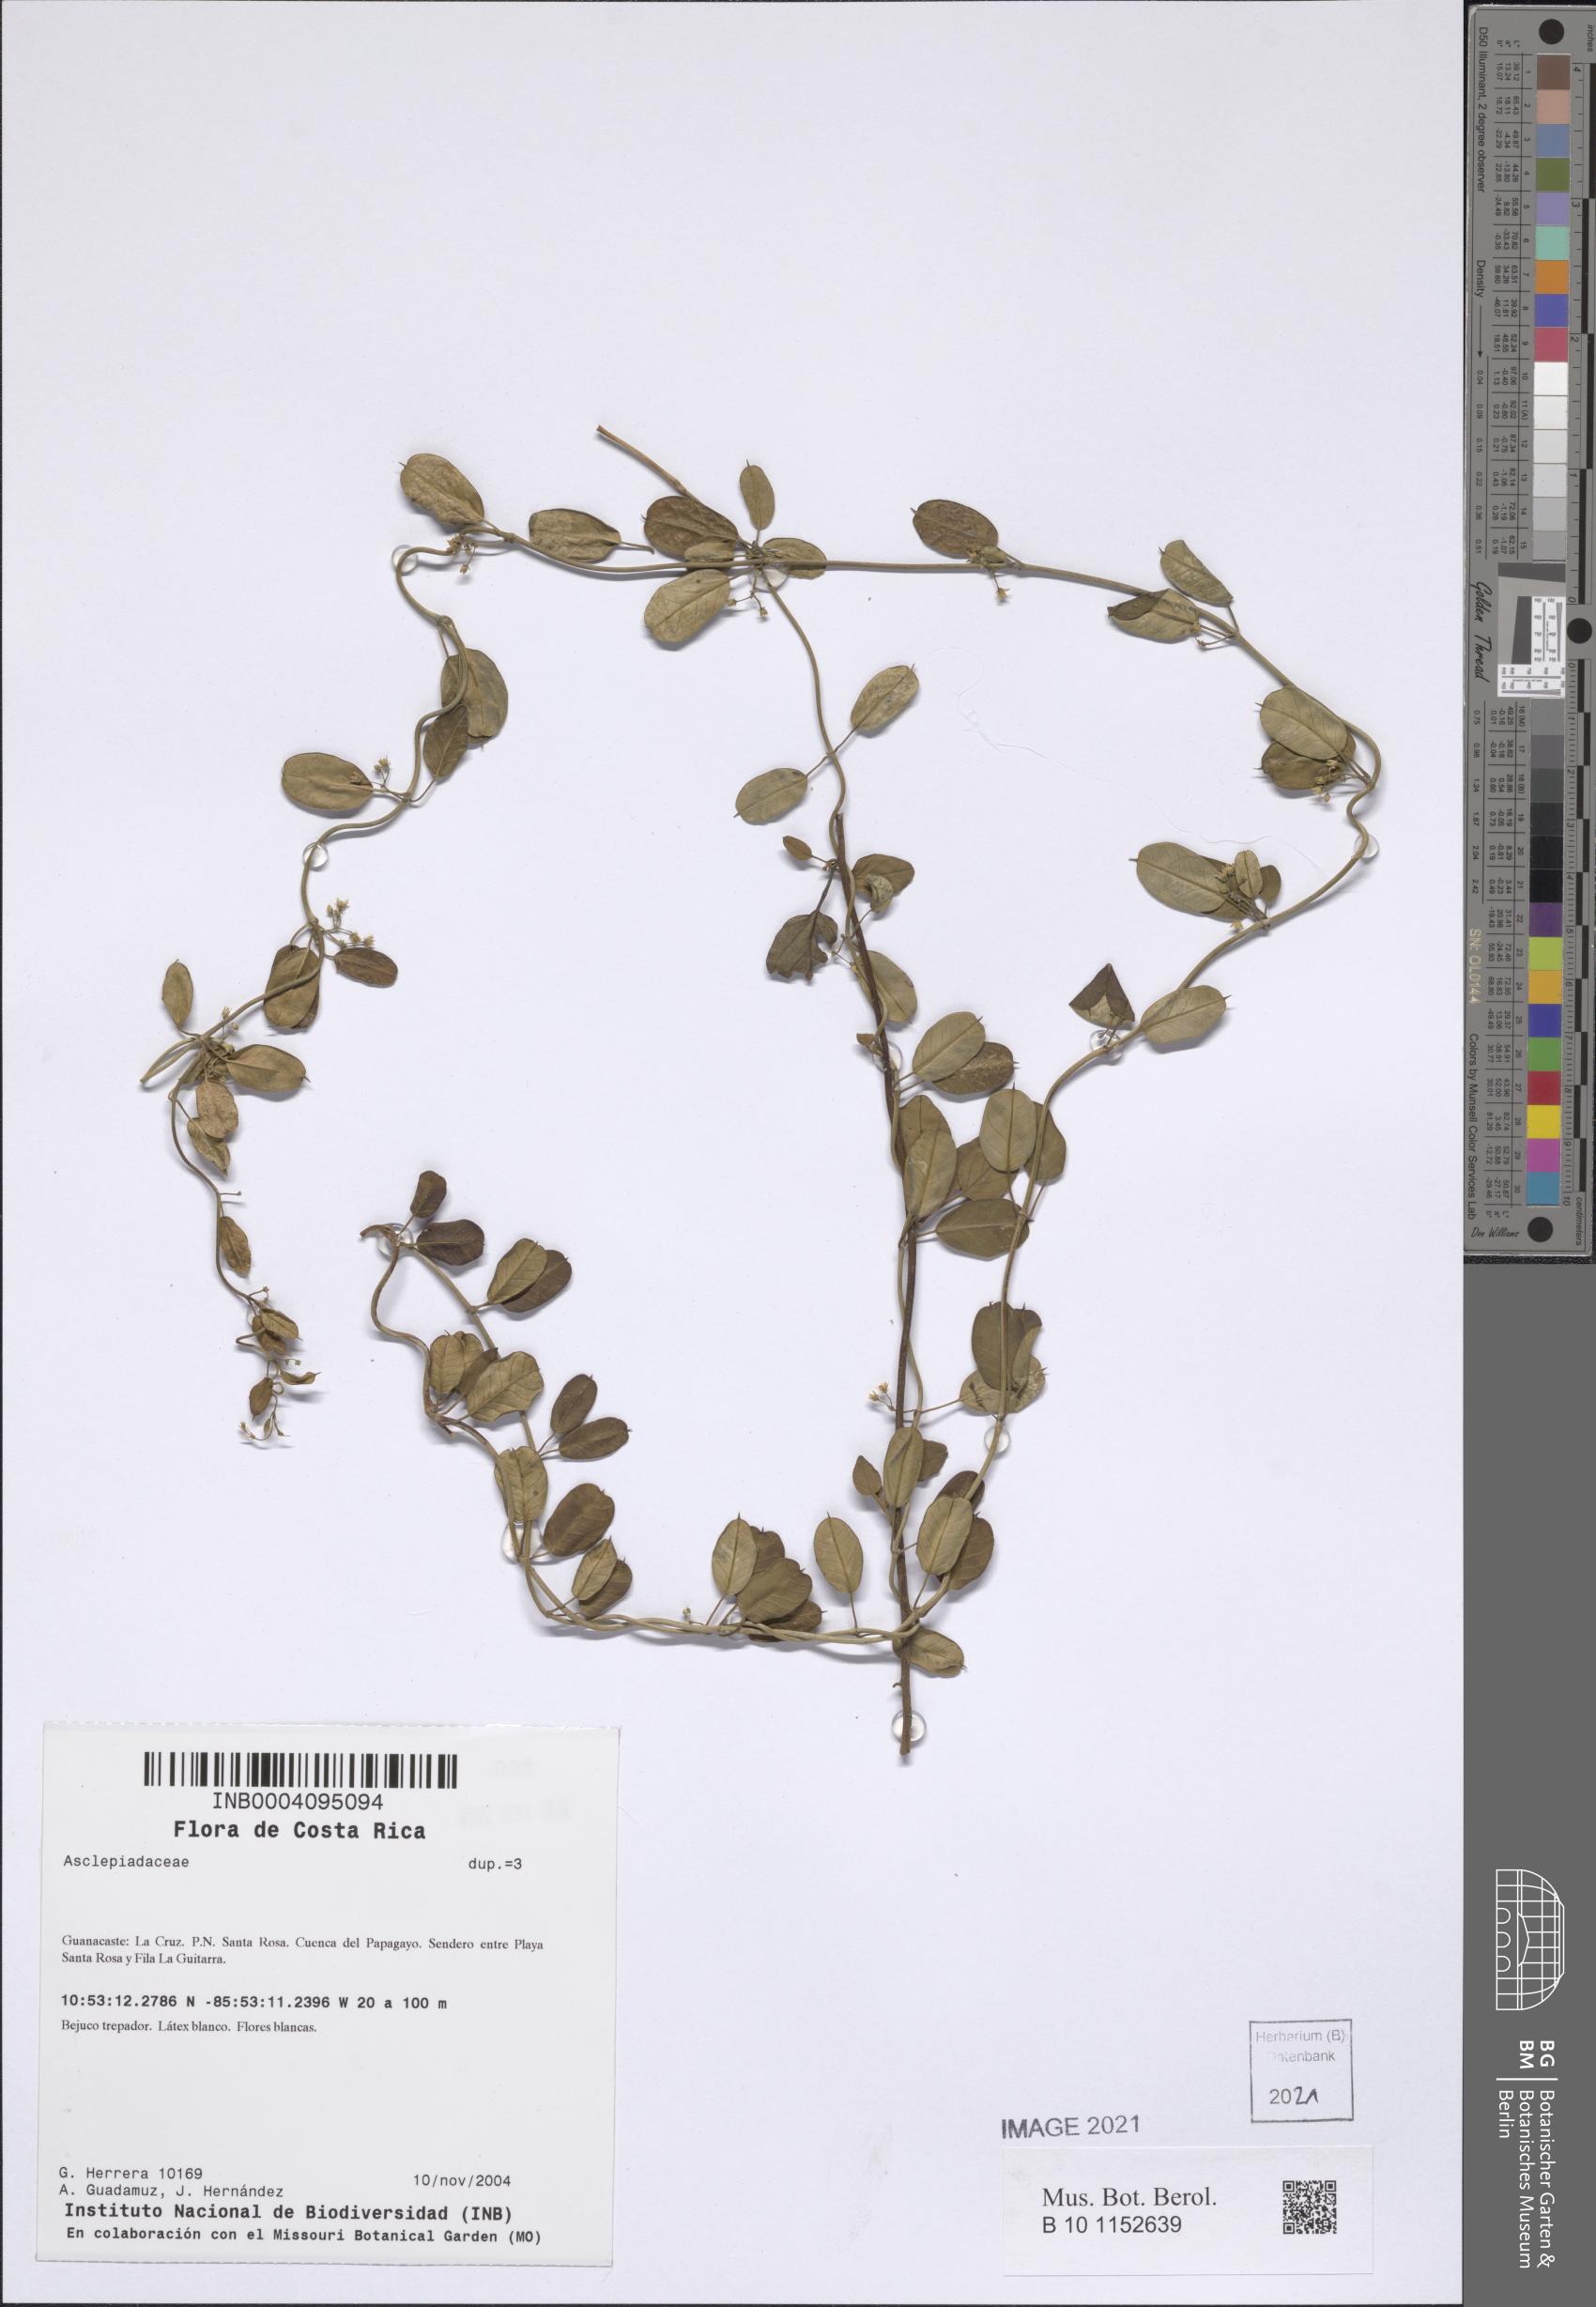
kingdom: Plantae
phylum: Tracheophyta
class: Magnoliopsida
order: Gentianales
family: Apocynaceae
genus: Metastelma
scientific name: Metastelma barbigerum
